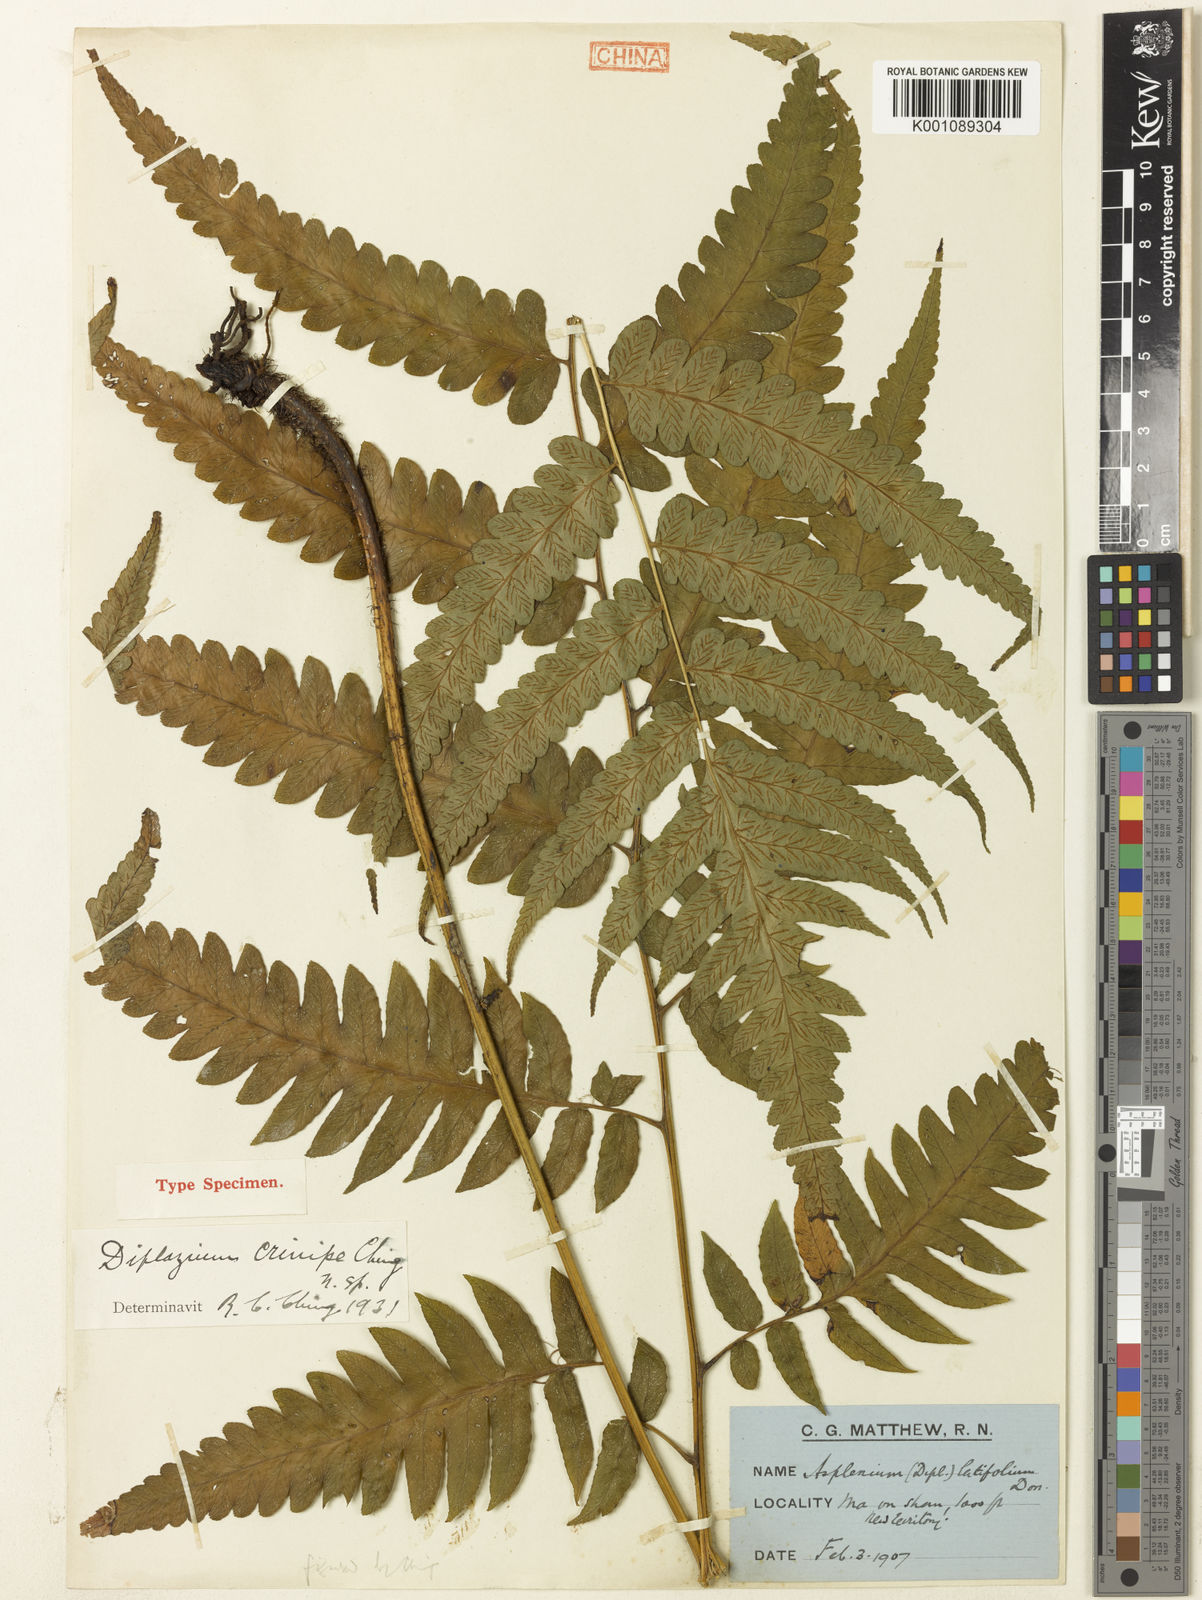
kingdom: Plantae
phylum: Tracheophyta
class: Polypodiopsida
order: Polypodiales
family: Athyriaceae
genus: Diplazium
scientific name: Diplazium dilatatum
